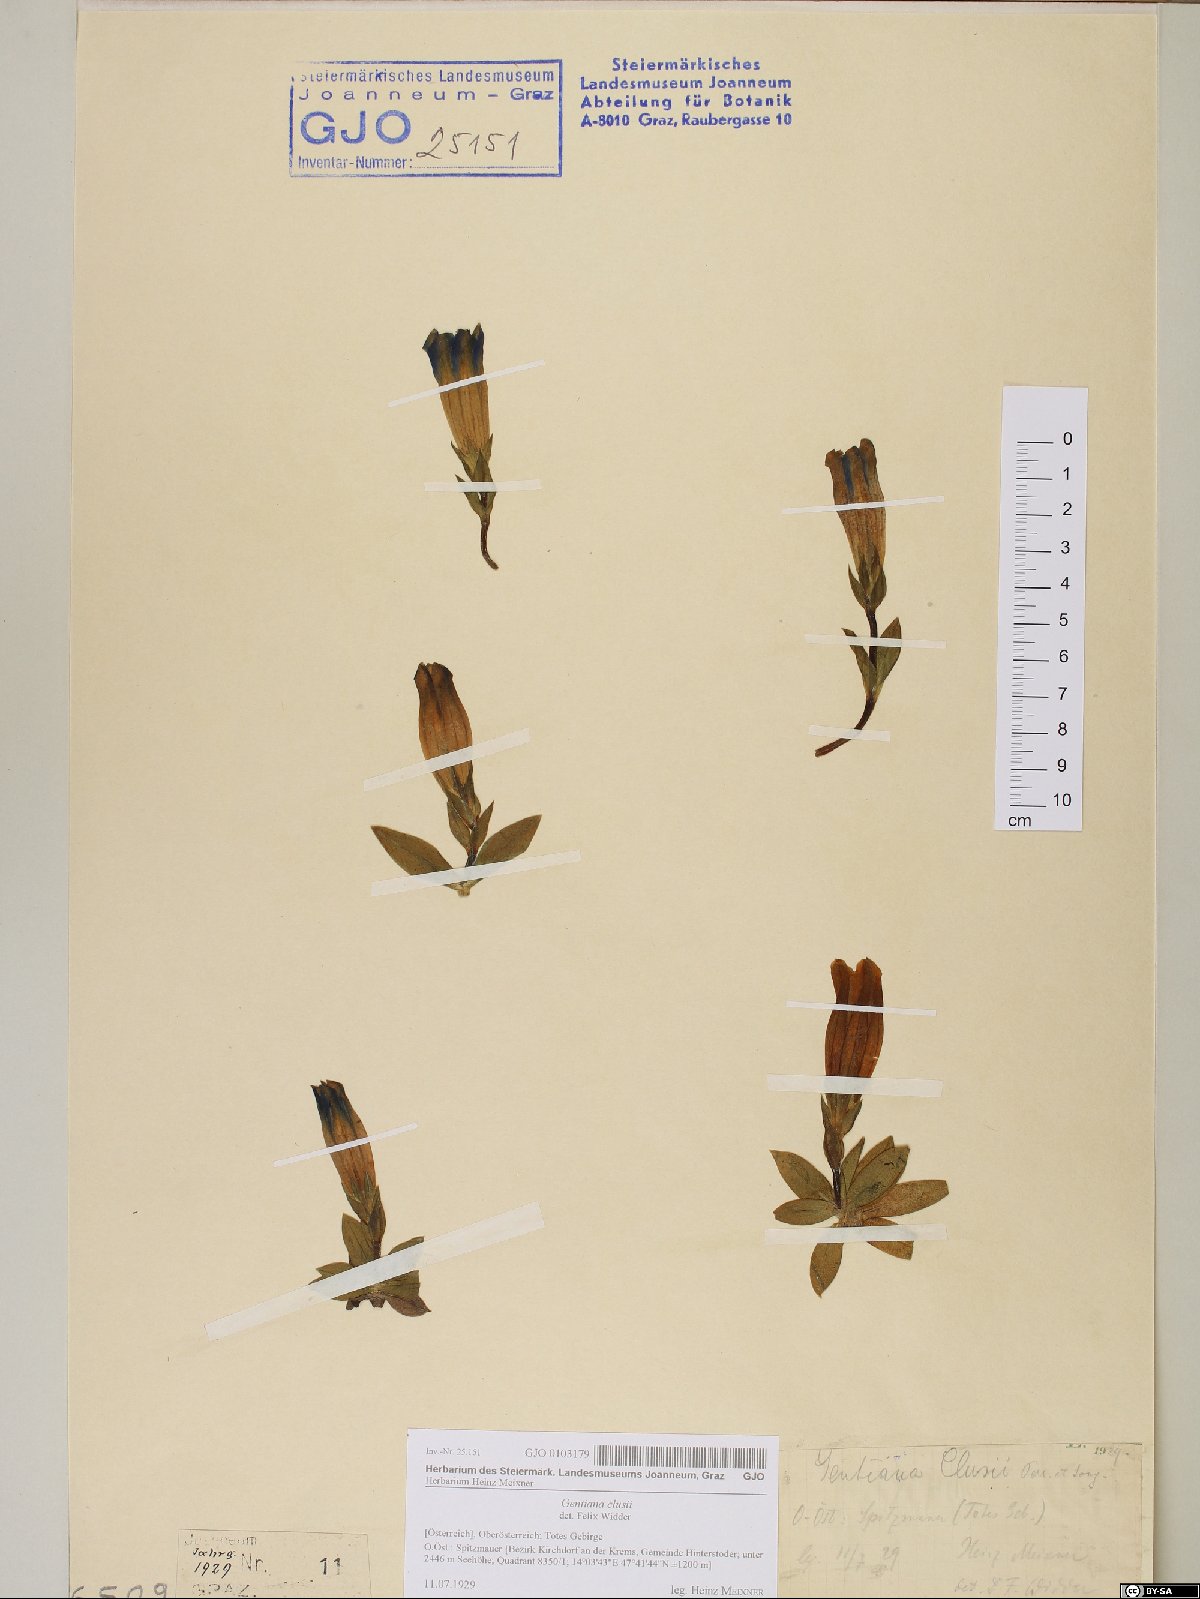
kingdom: Plantae
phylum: Tracheophyta
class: Magnoliopsida
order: Gentianales
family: Gentianaceae
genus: Gentiana
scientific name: Gentiana clusii
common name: Trumpet gentian
